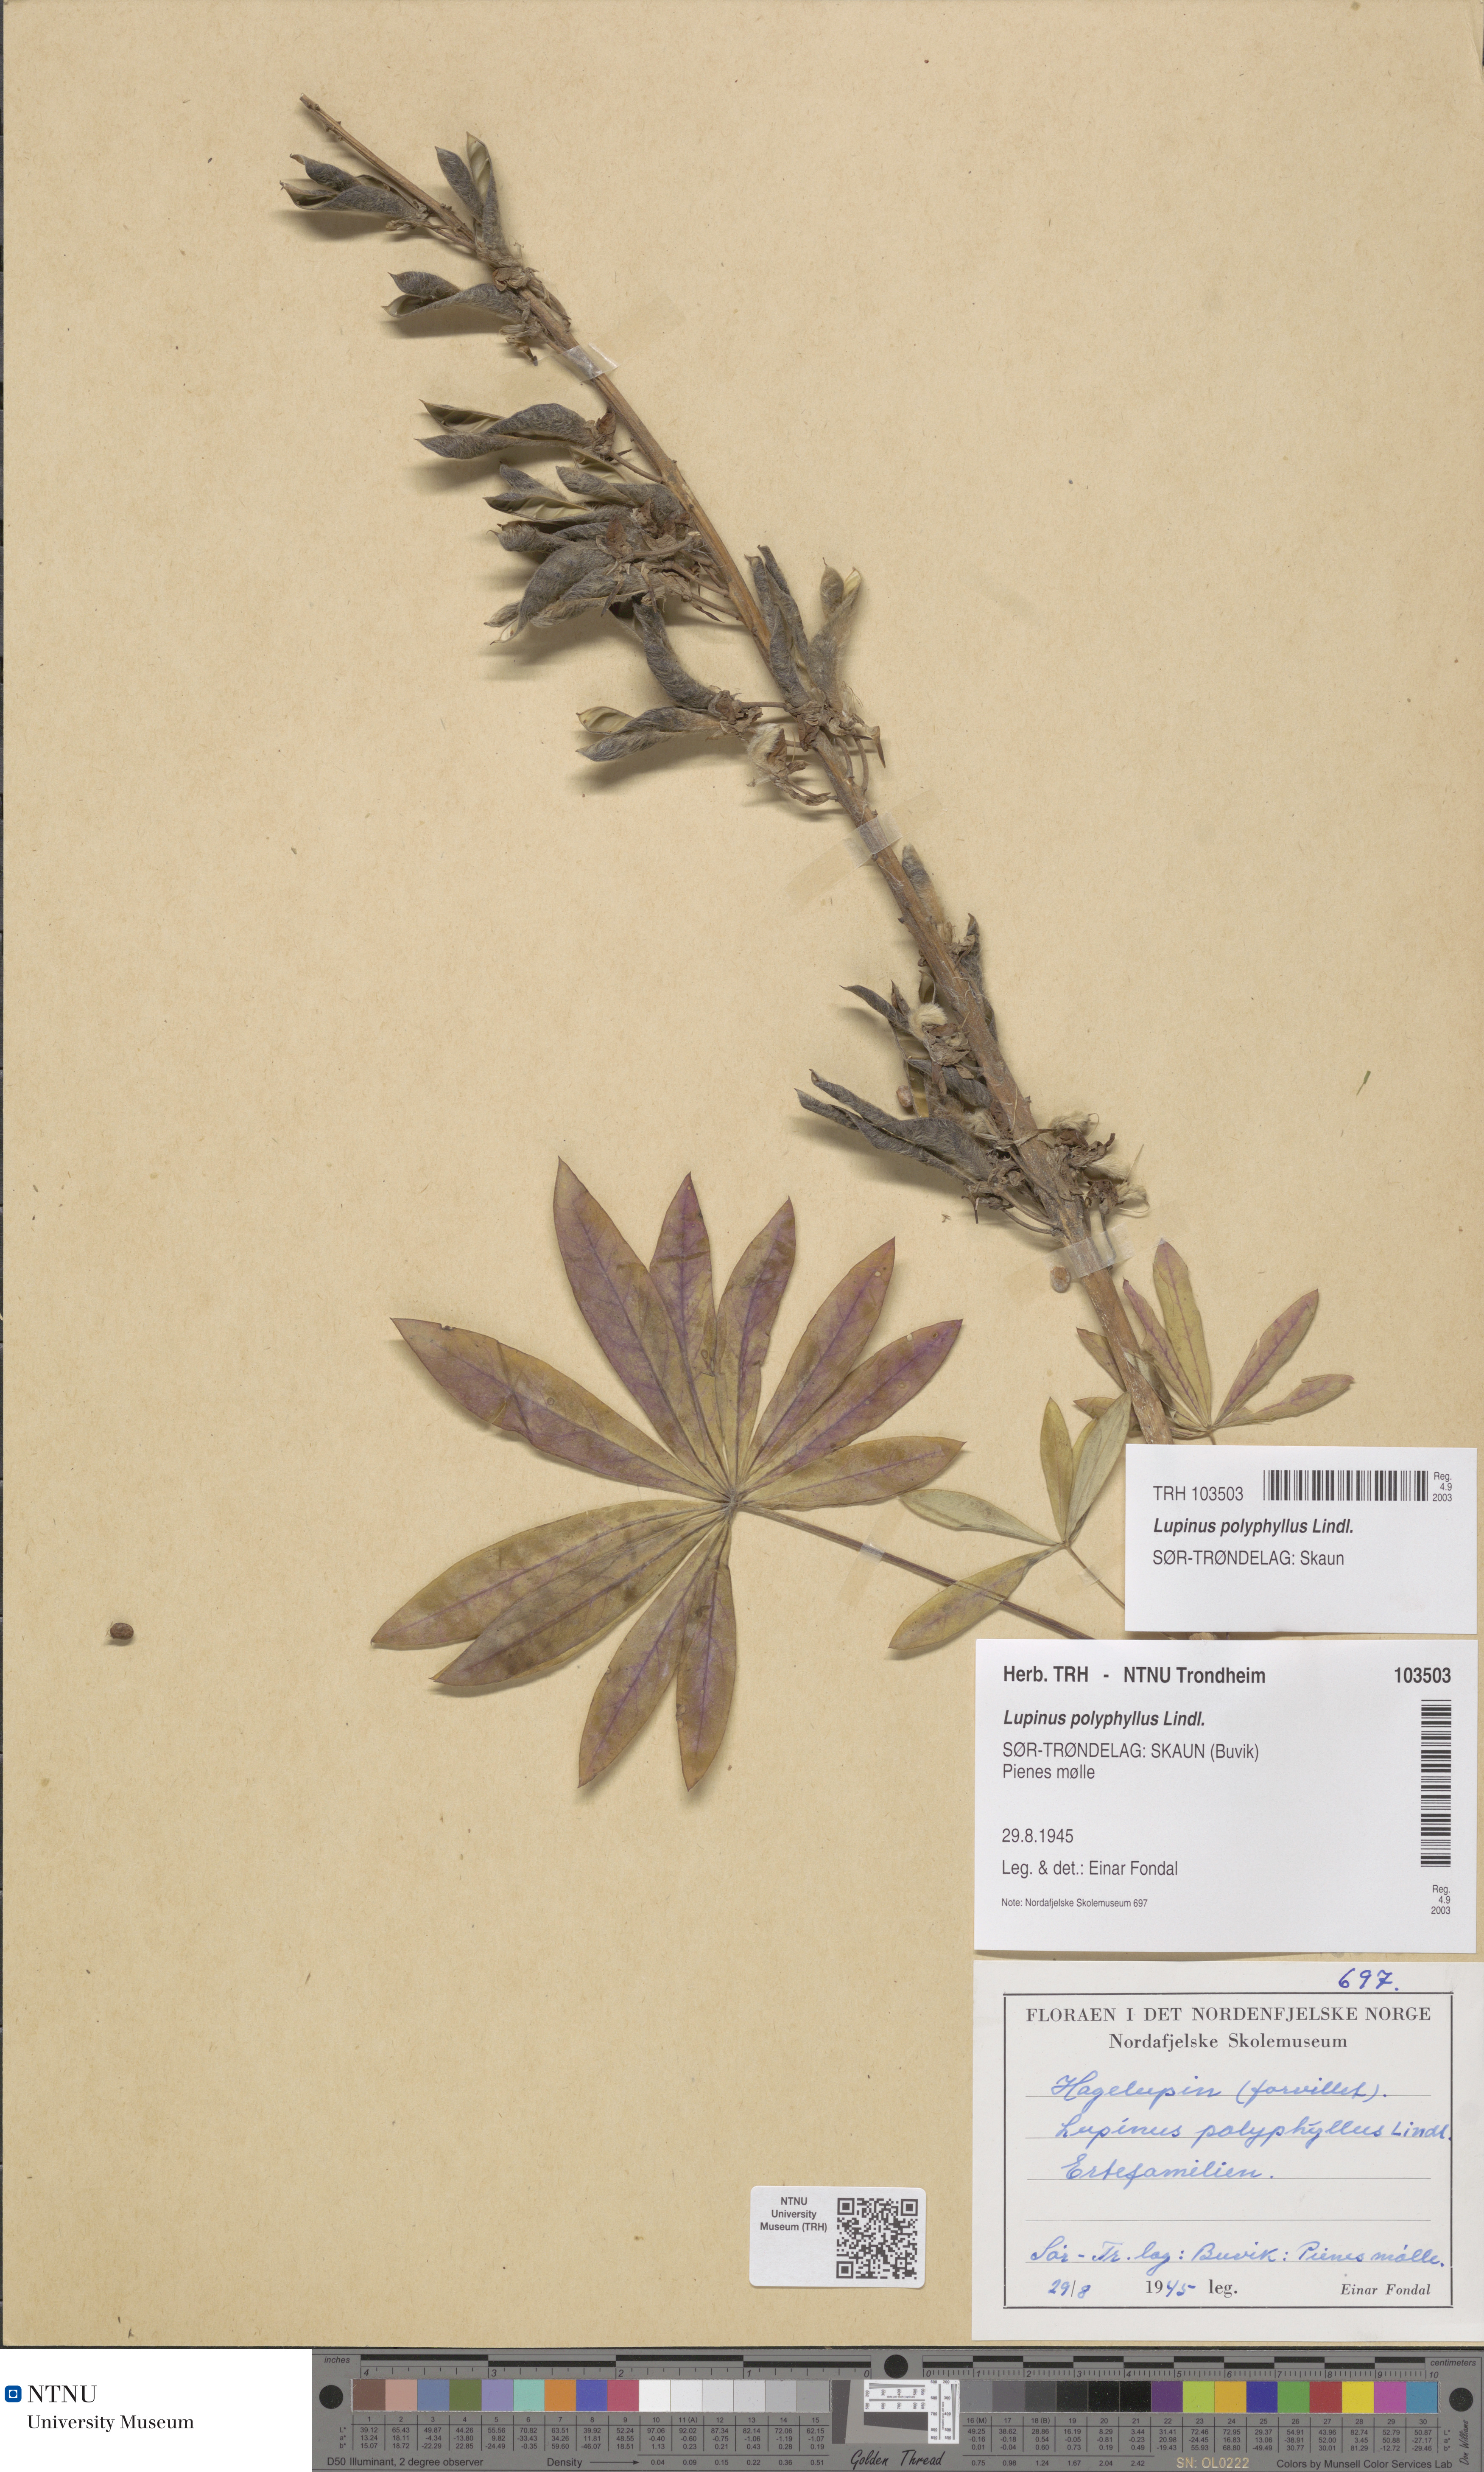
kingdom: Plantae
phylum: Tracheophyta
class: Magnoliopsida
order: Fabales
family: Fabaceae
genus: Lupinus
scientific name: Lupinus polyphyllus
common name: Garden lupin
